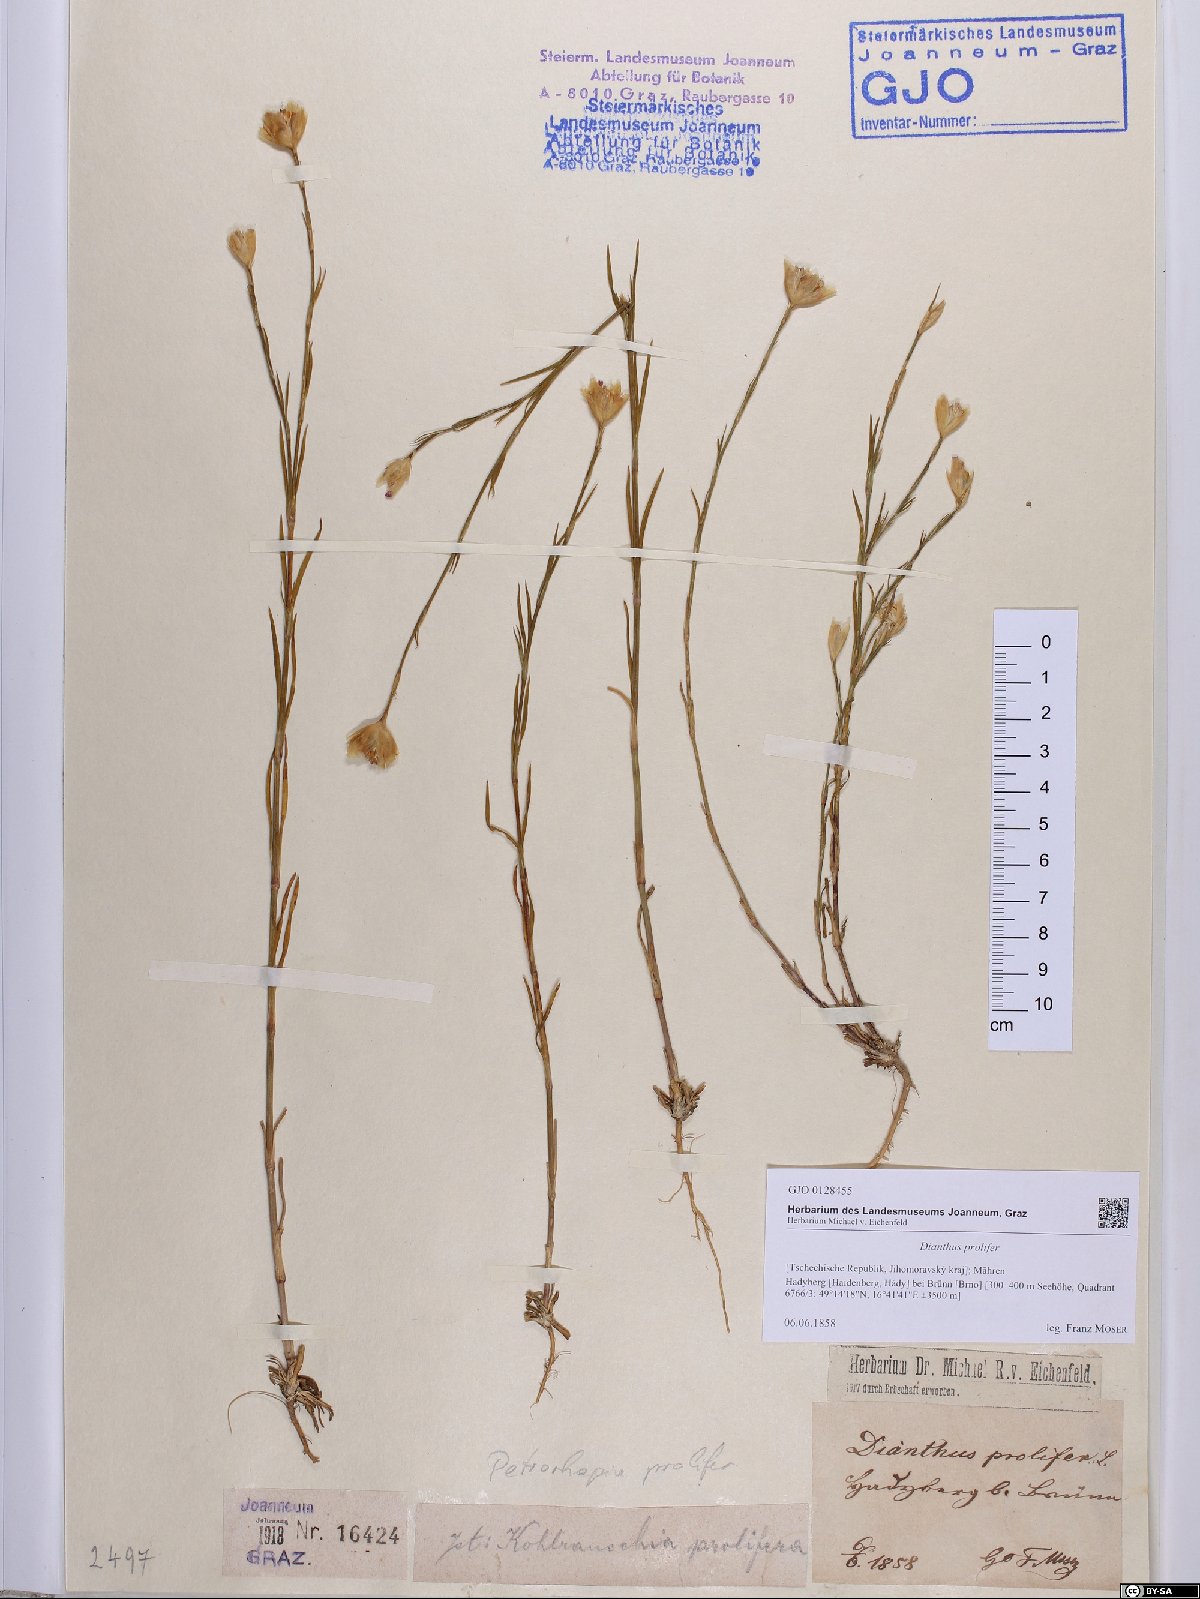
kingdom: Plantae
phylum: Tracheophyta
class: Magnoliopsida
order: Caryophyllales
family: Caryophyllaceae
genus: Petrorhagia
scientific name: Petrorhagia prolifera
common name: Proliferous pink
